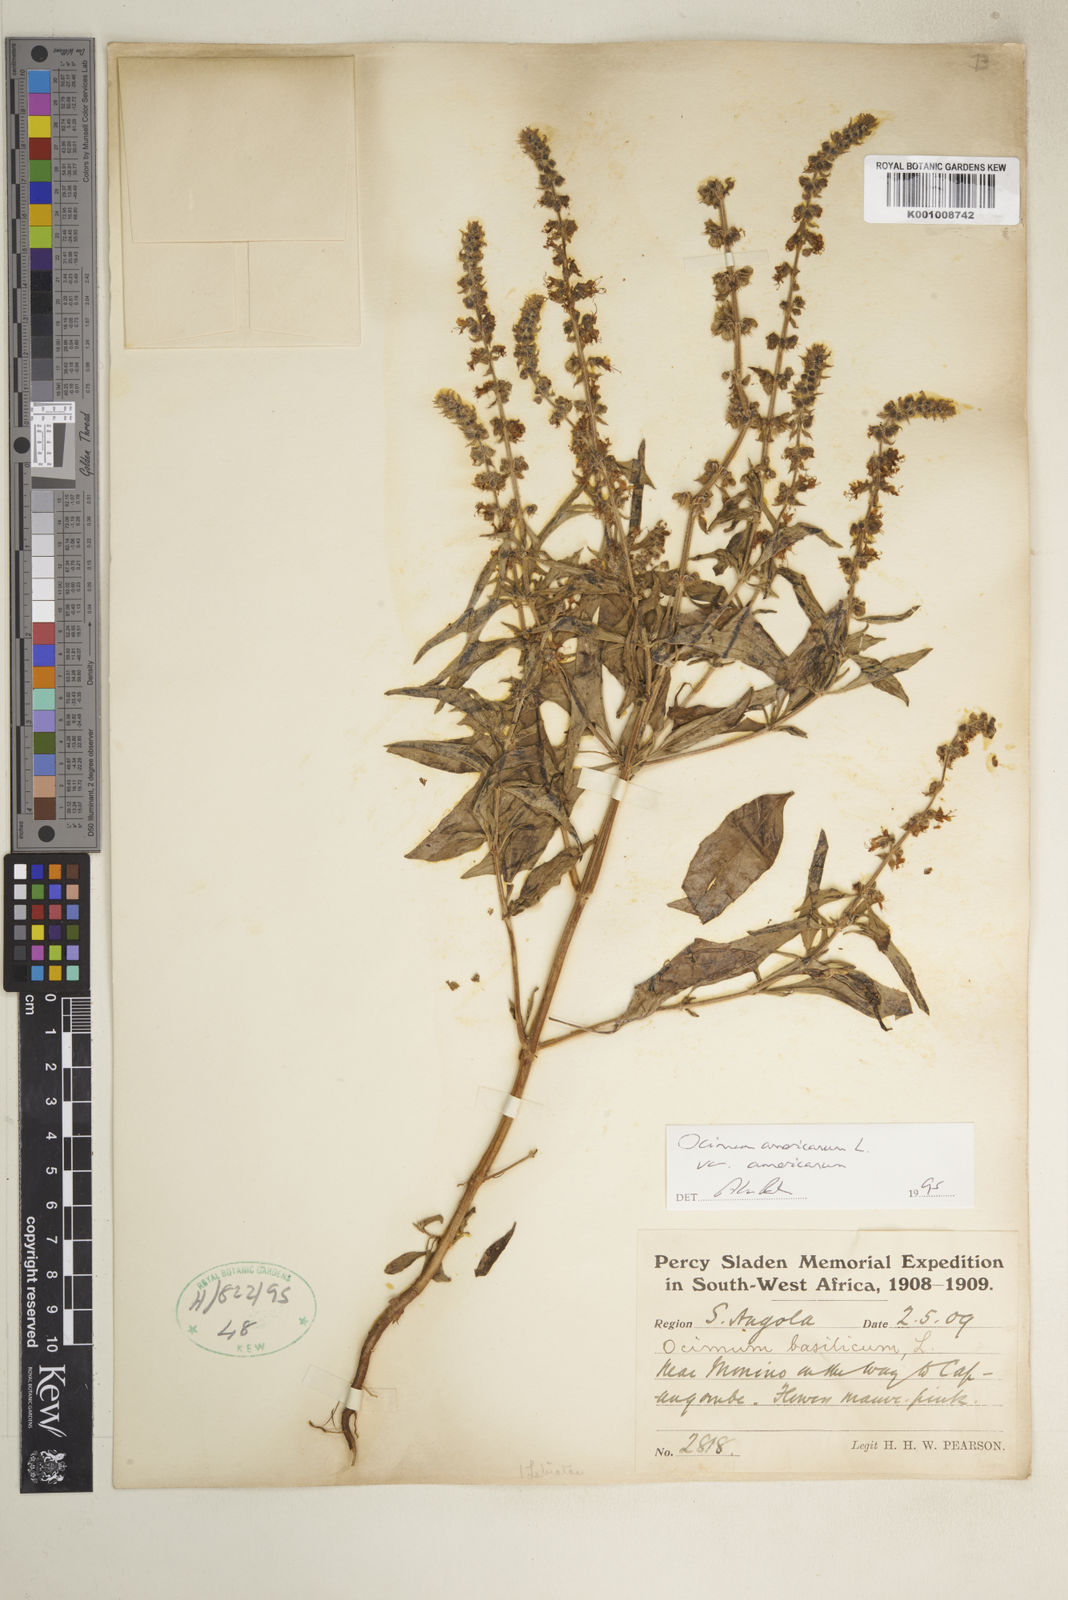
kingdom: Plantae
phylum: Tracheophyta
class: Magnoliopsida
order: Lamiales
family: Lamiaceae
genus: Ocimum
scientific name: Ocimum americanum
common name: American basil
